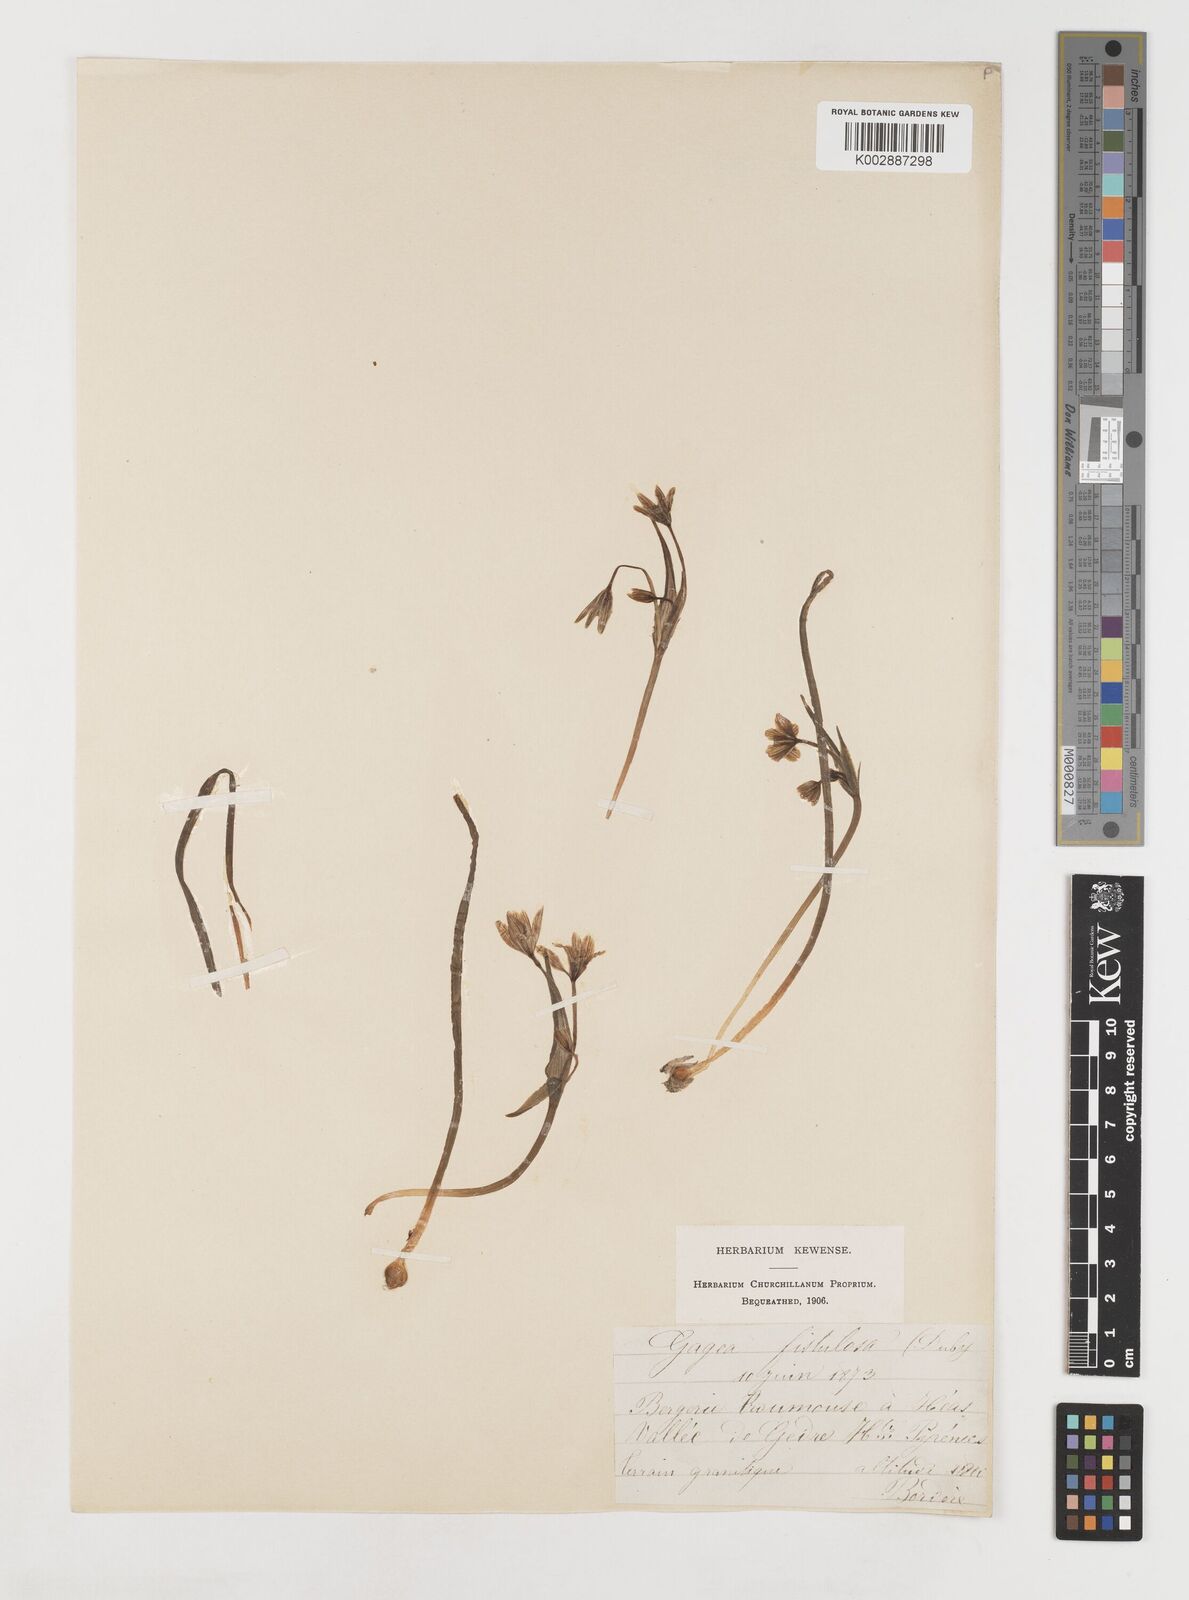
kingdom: Plantae
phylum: Tracheophyta
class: Liliopsida
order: Liliales
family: Liliaceae
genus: Gagea
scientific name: Gagea bohemica
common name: Early star-of-bethlehem
